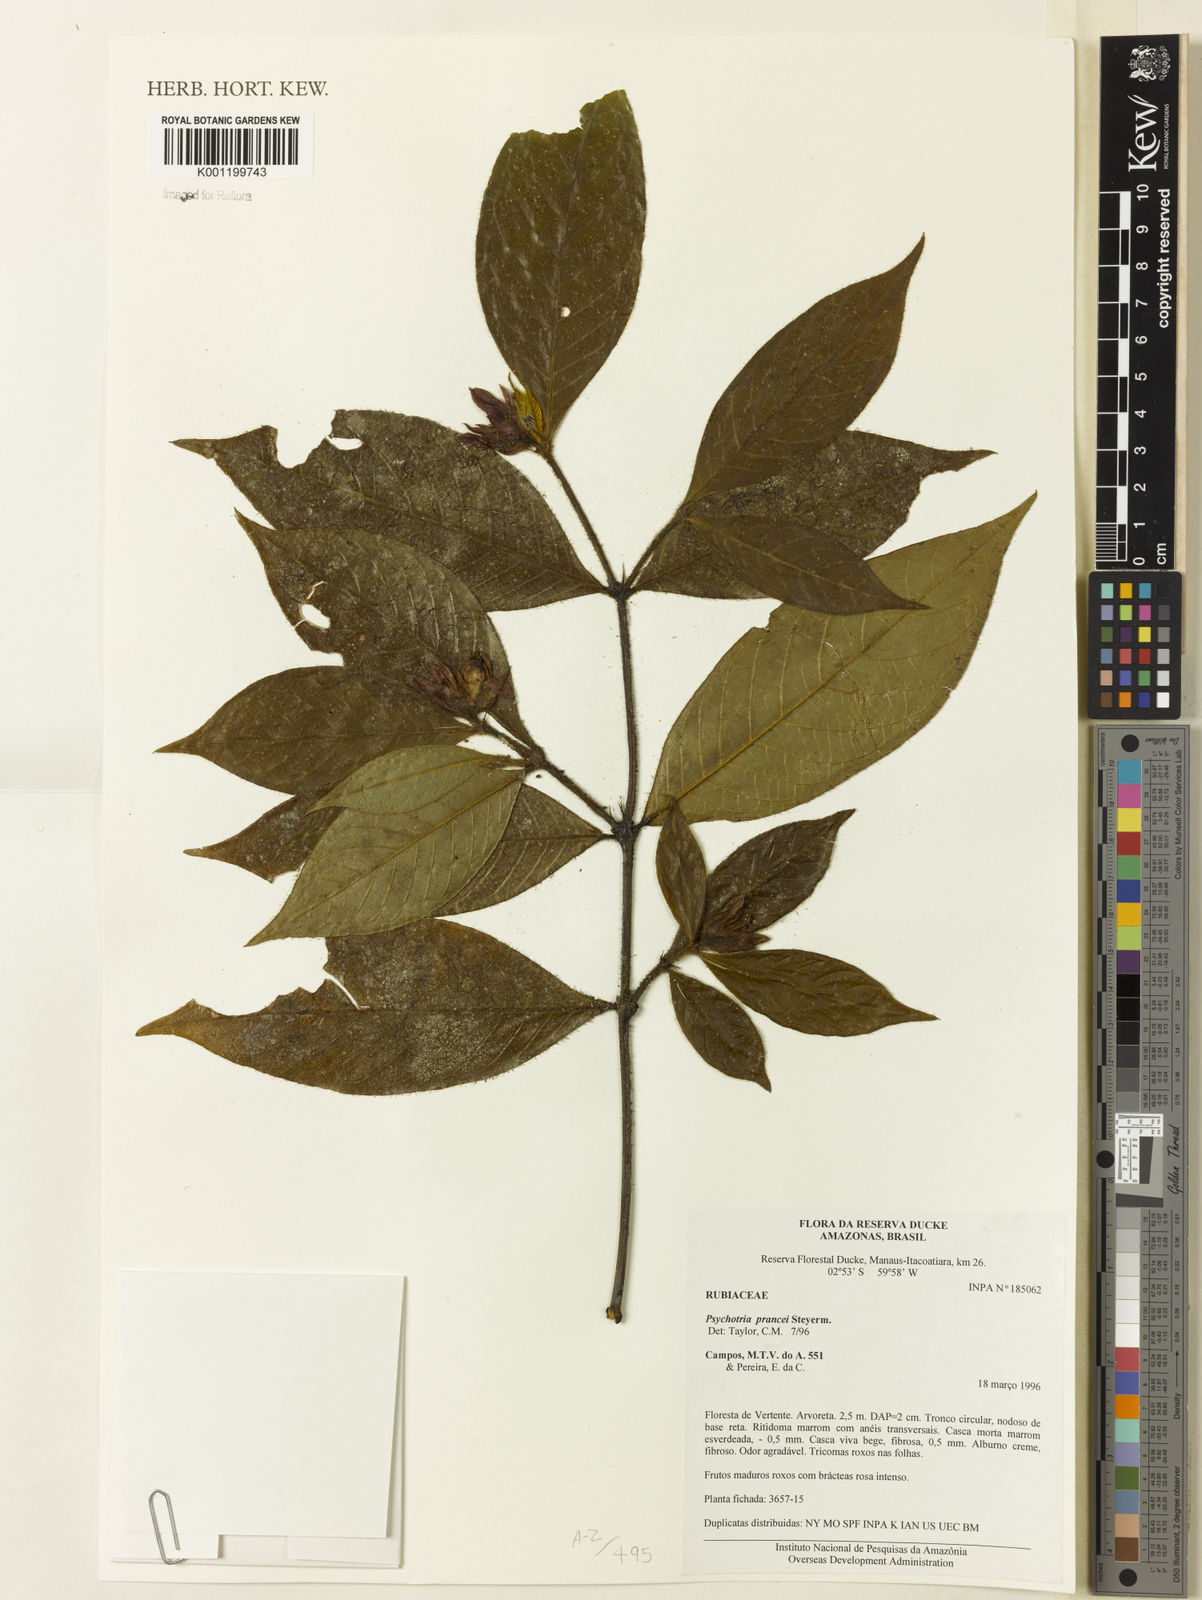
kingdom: Plantae
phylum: Tracheophyta
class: Magnoliopsida
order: Gentianales
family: Rubiaceae
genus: Palicourea
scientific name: Palicourea prancei
